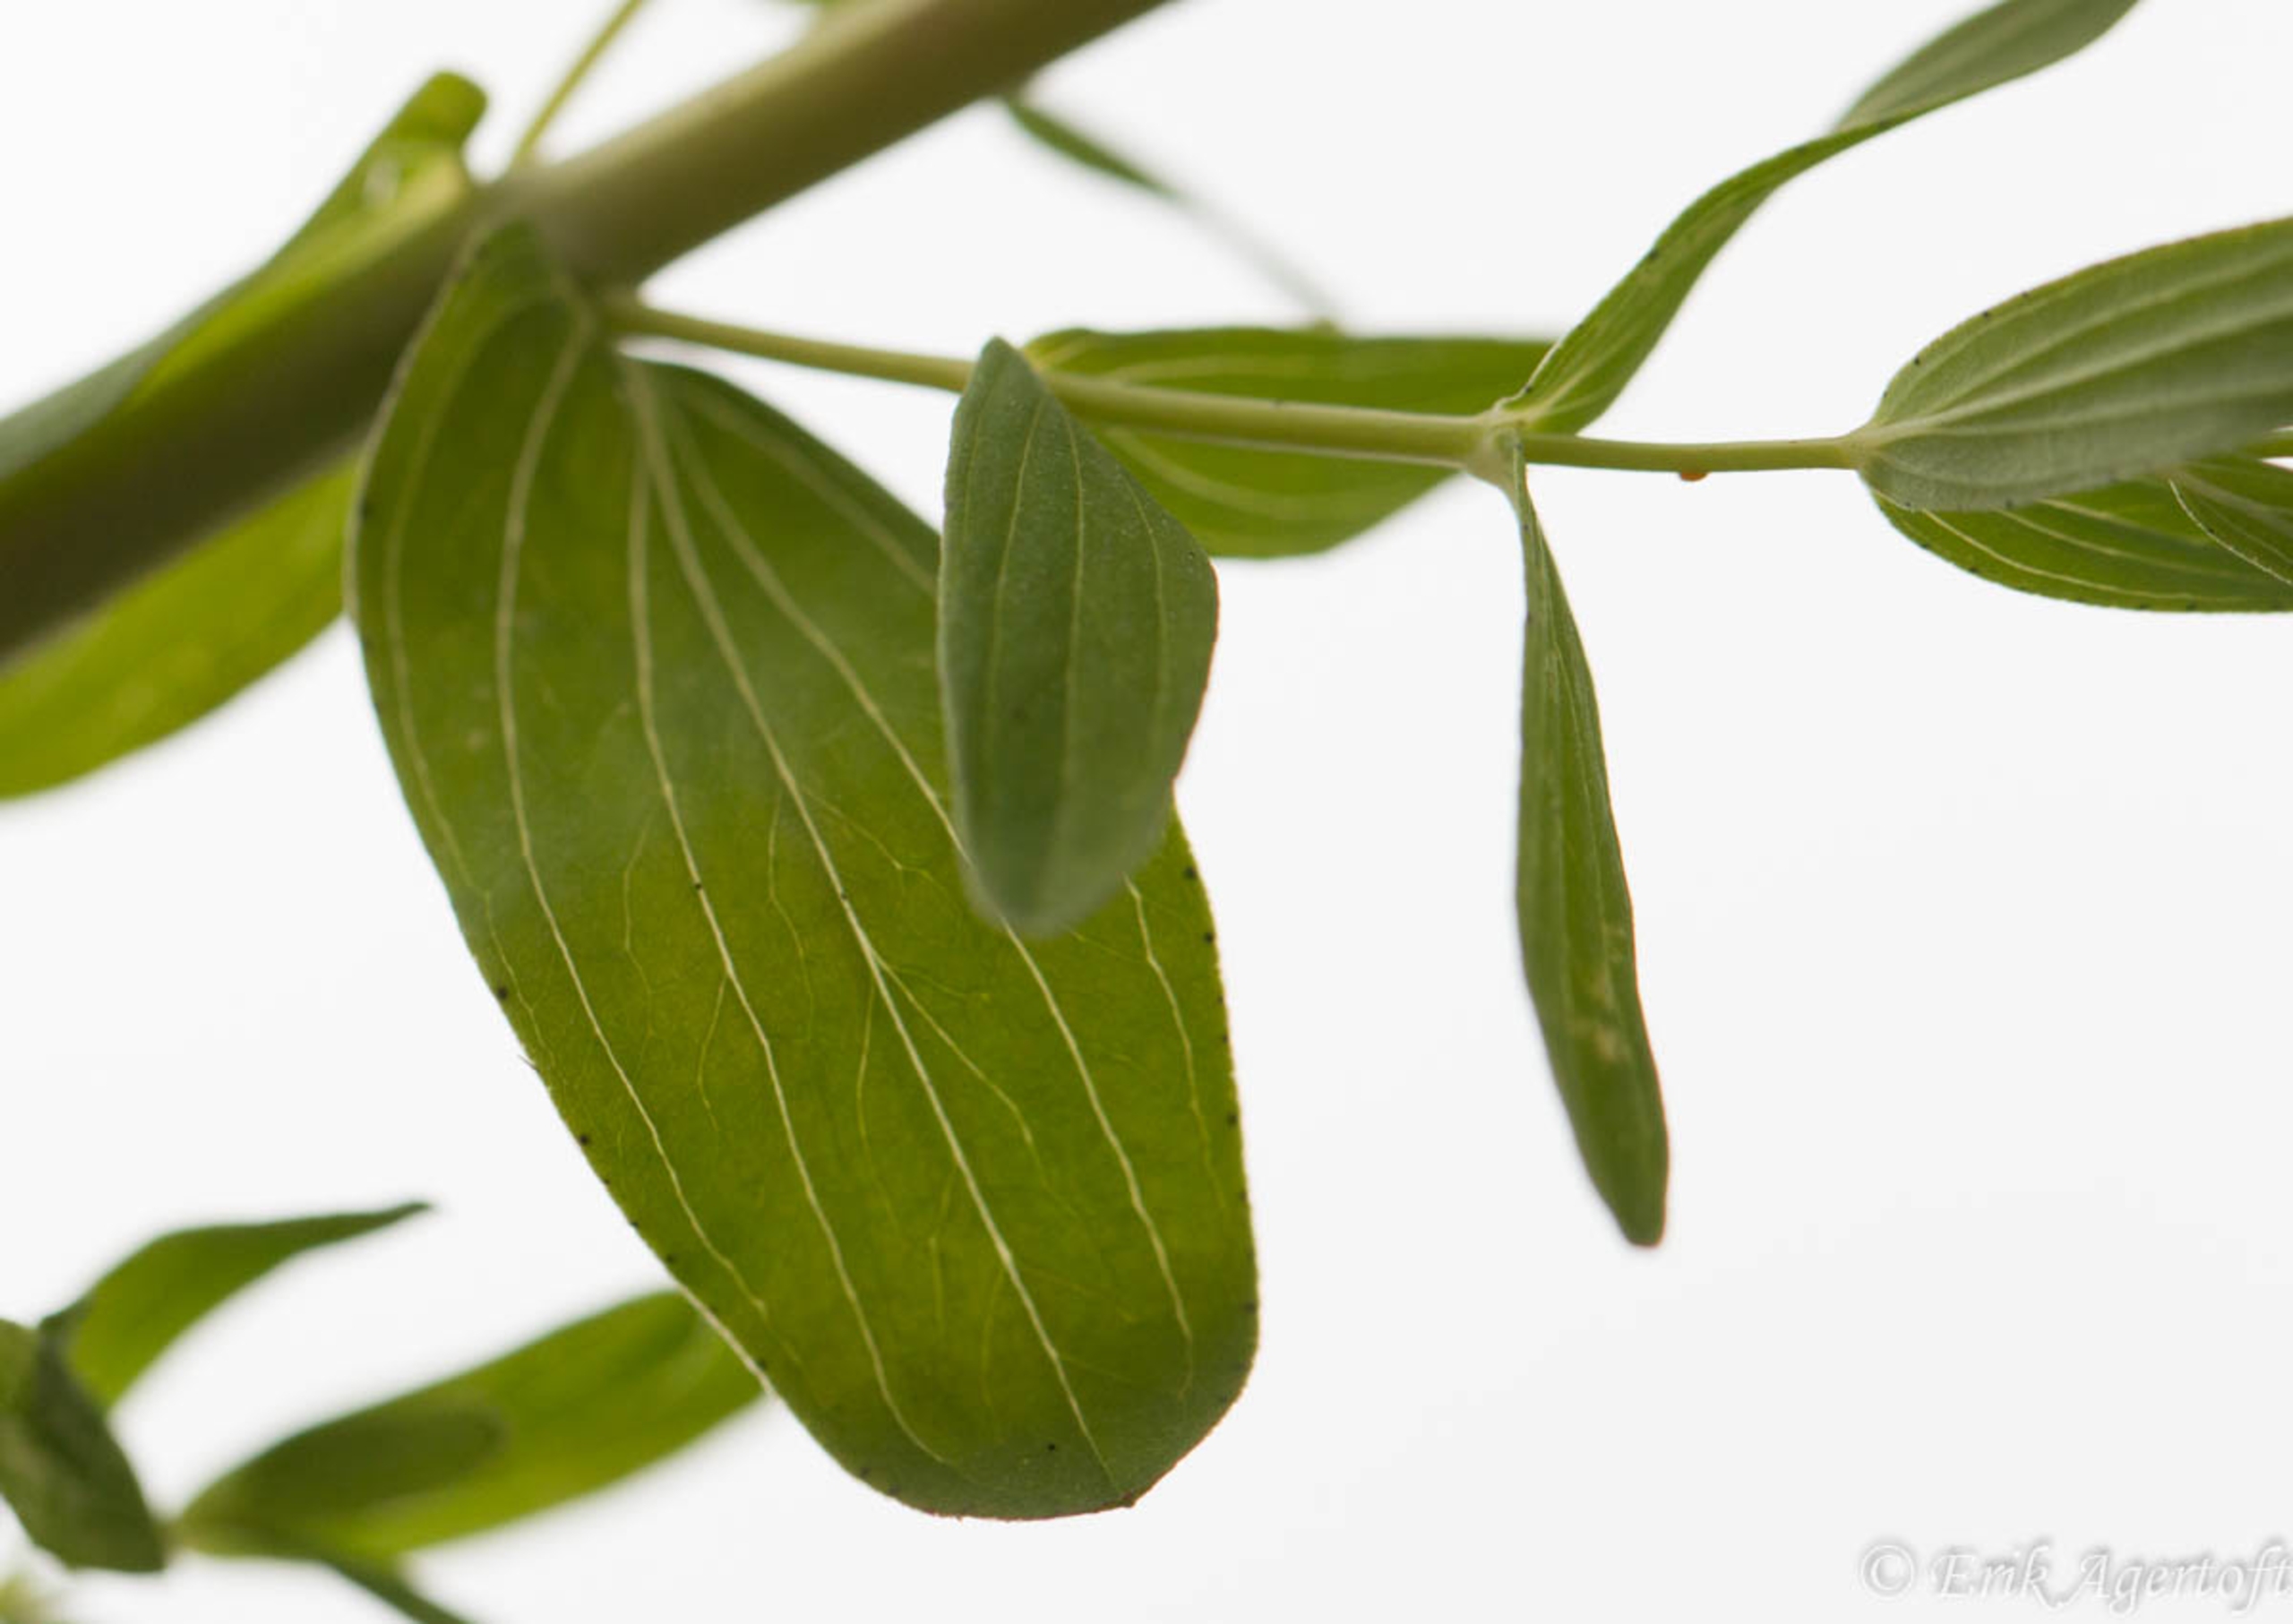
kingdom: Plantae
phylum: Tracheophyta
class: Magnoliopsida
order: Malpighiales
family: Hypericaceae
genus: Hypericum
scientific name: Hypericum perforatum
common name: Prikbladet perikon
